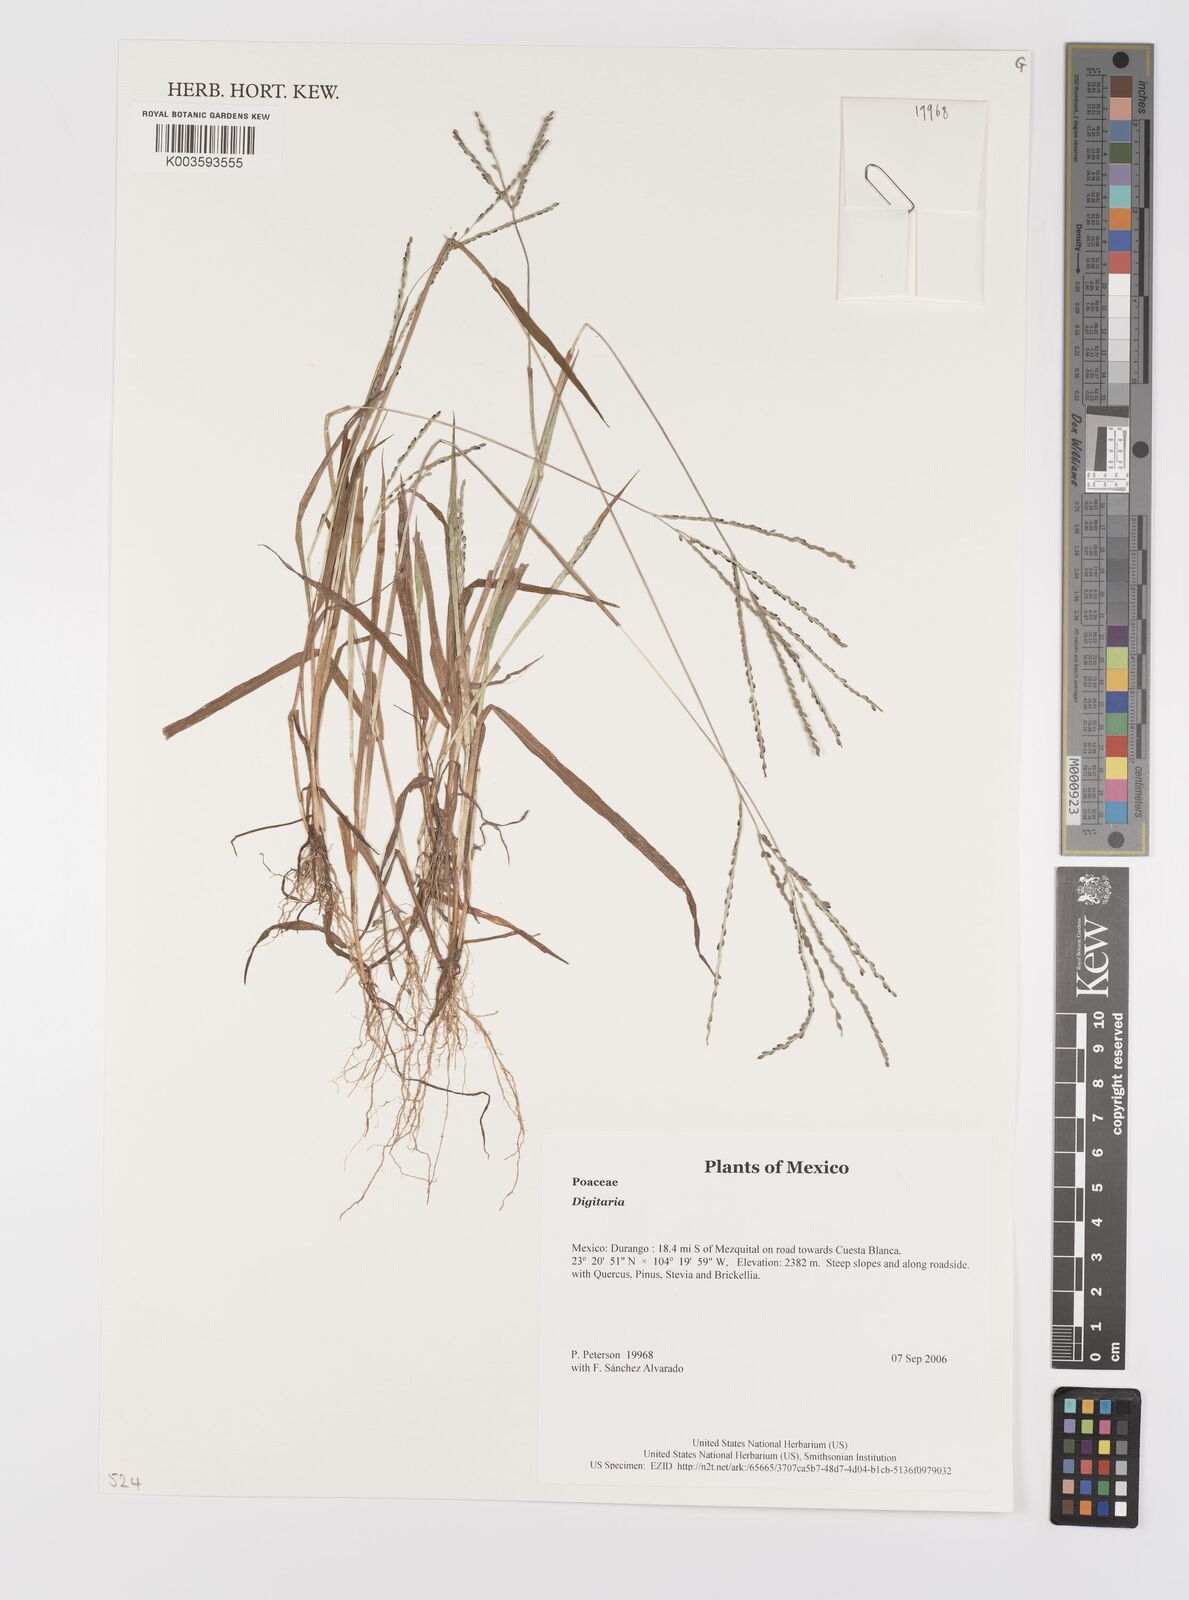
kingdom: Plantae
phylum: Tracheophyta
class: Liliopsida
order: Poales
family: Poaceae
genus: Digitaria
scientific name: Digitaria spec
